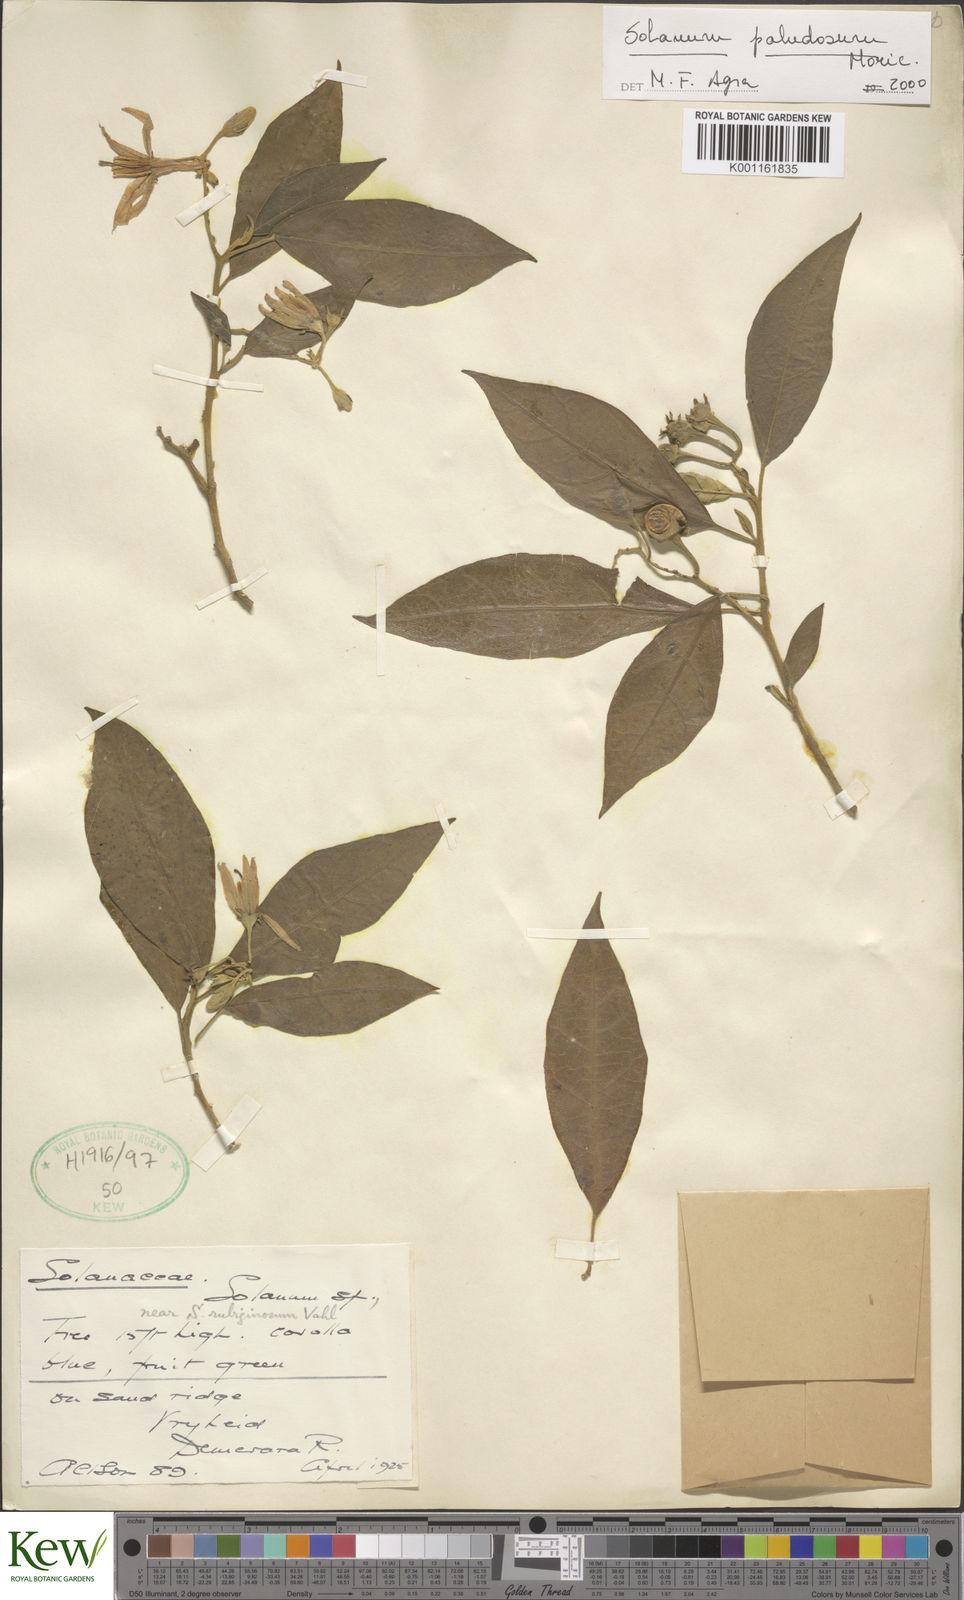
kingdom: Plantae
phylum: Tracheophyta
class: Magnoliopsida
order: Solanales
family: Solanaceae
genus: Solanum
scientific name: Solanum paludosum
